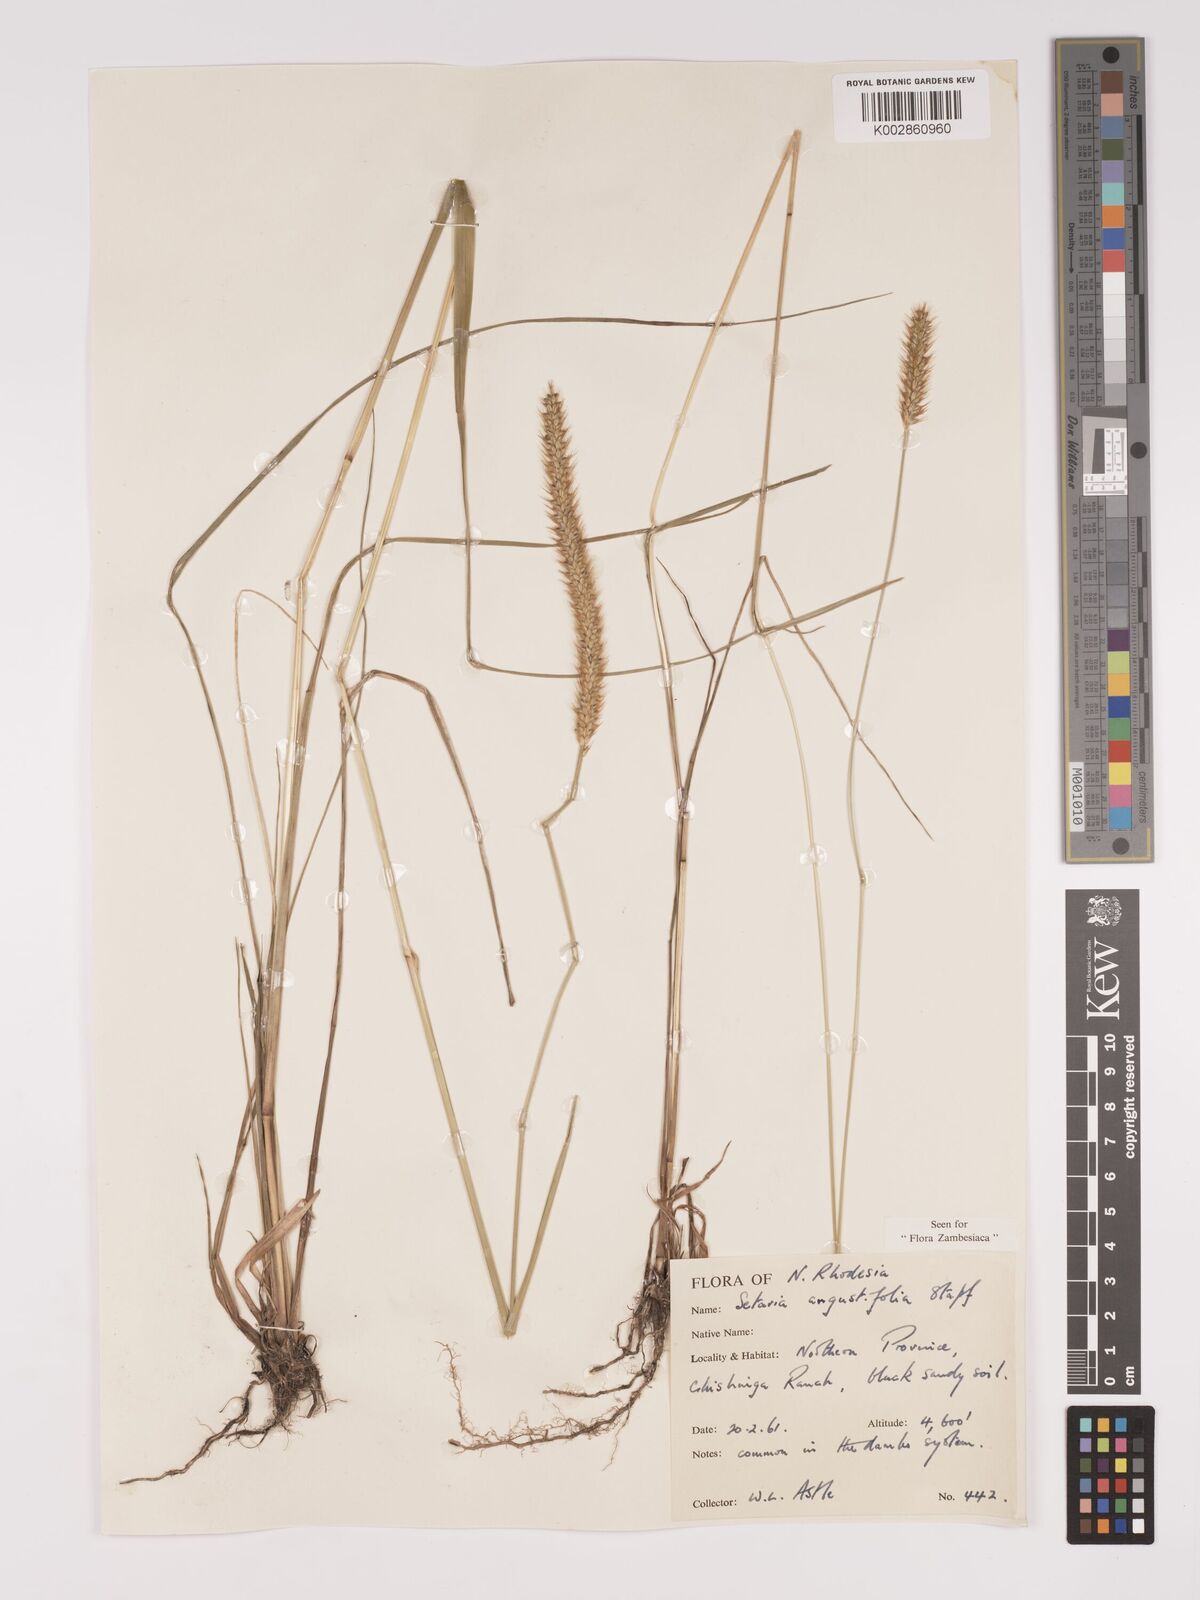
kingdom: Plantae
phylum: Tracheophyta
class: Liliopsida
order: Poales
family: Poaceae
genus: Setaria
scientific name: Setaria
